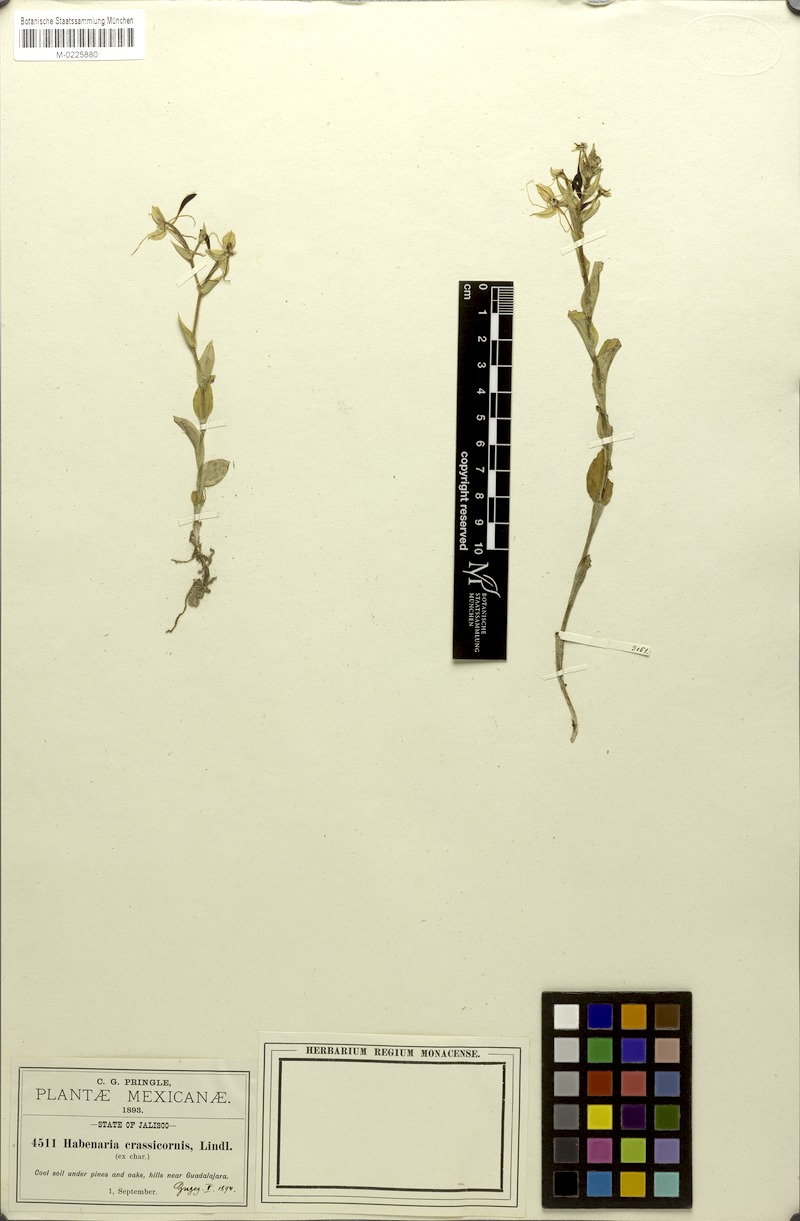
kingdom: Plantae
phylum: Tracheophyta
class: Liliopsida
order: Asparagales
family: Orchidaceae
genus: Habenaria
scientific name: Habenaria crassicornis
